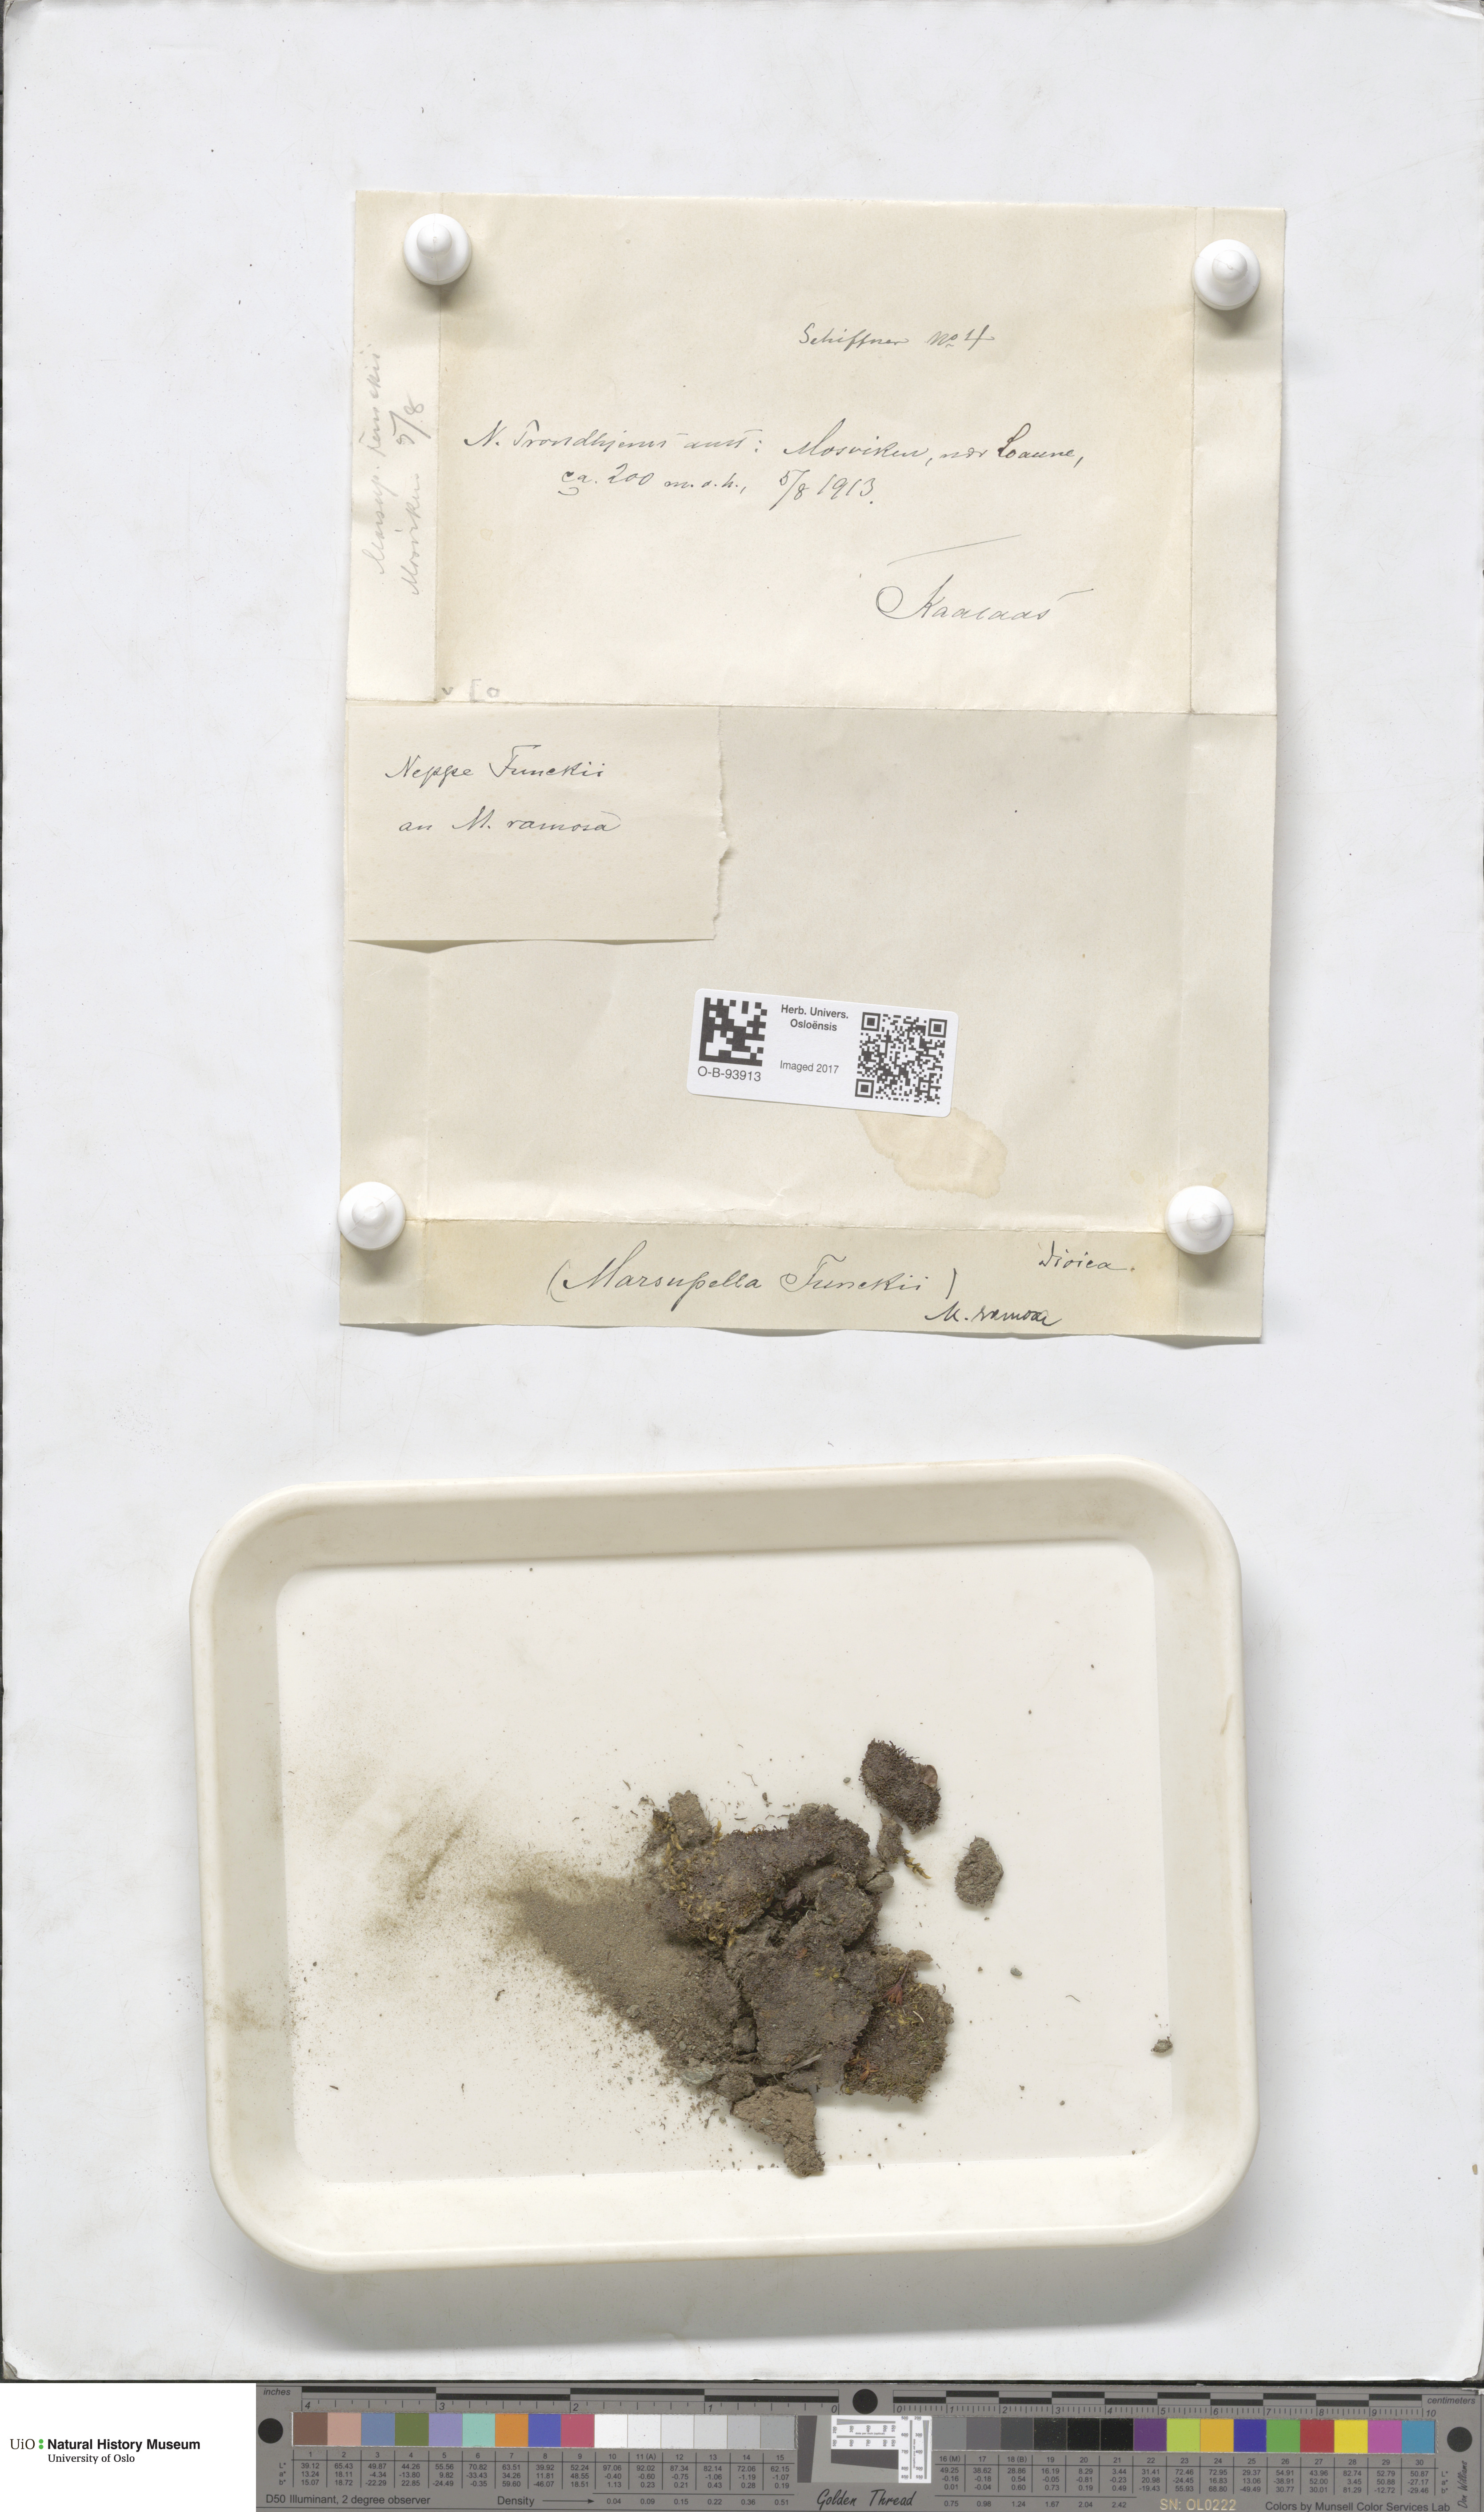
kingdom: Plantae
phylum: Marchantiophyta
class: Jungermanniopsida
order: Jungermanniales
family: Gymnomitriaceae
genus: Marsupella
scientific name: Marsupella
